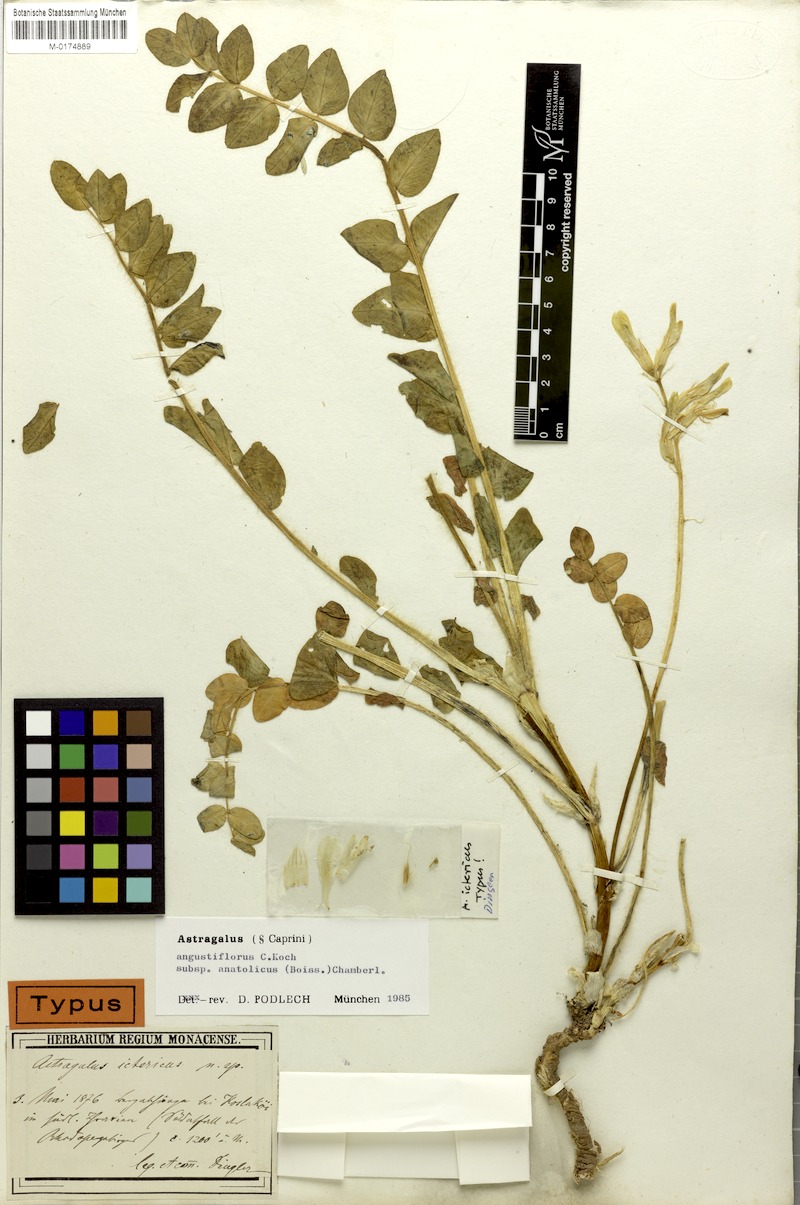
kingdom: Plantae
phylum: Tracheophyta
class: Magnoliopsida
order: Fabales
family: Fabaceae
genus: Astragalus
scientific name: Astragalus angustiflorus
